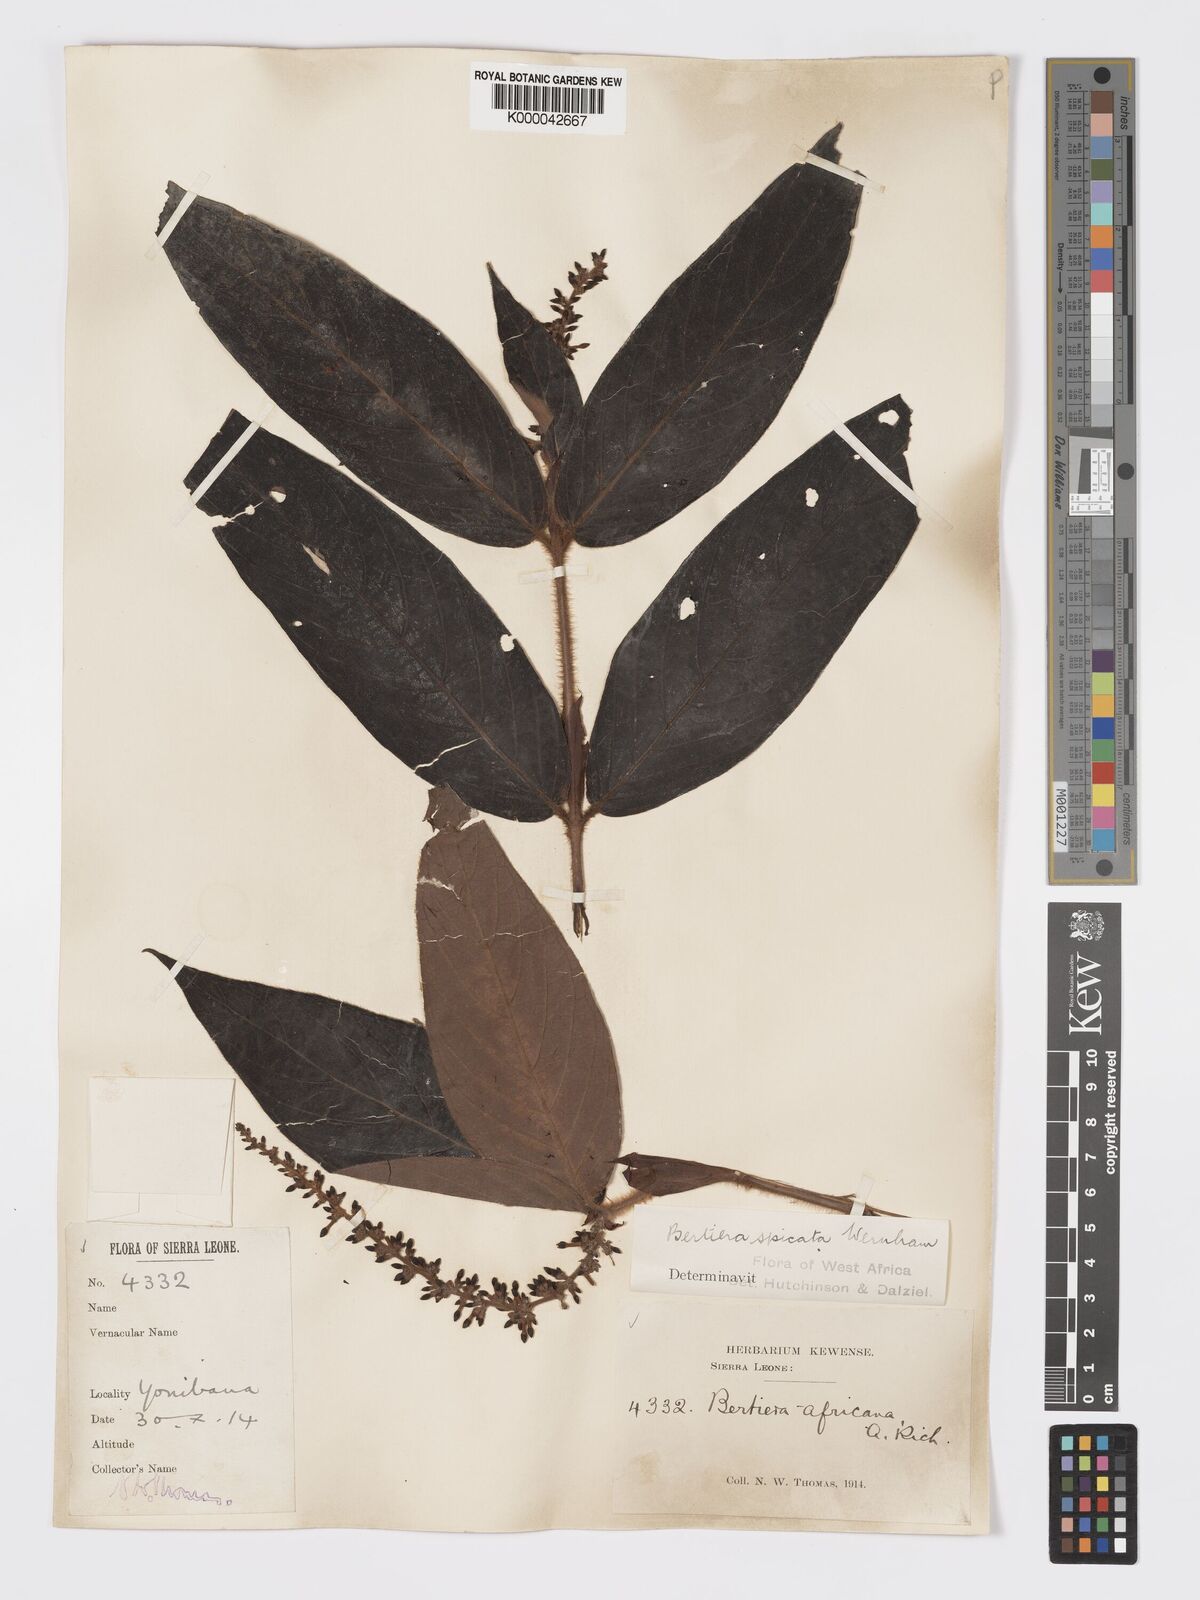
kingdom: Plantae
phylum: Tracheophyta
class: Magnoliopsida
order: Gentianales
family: Rubiaceae
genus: Bertiera
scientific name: Bertiera
